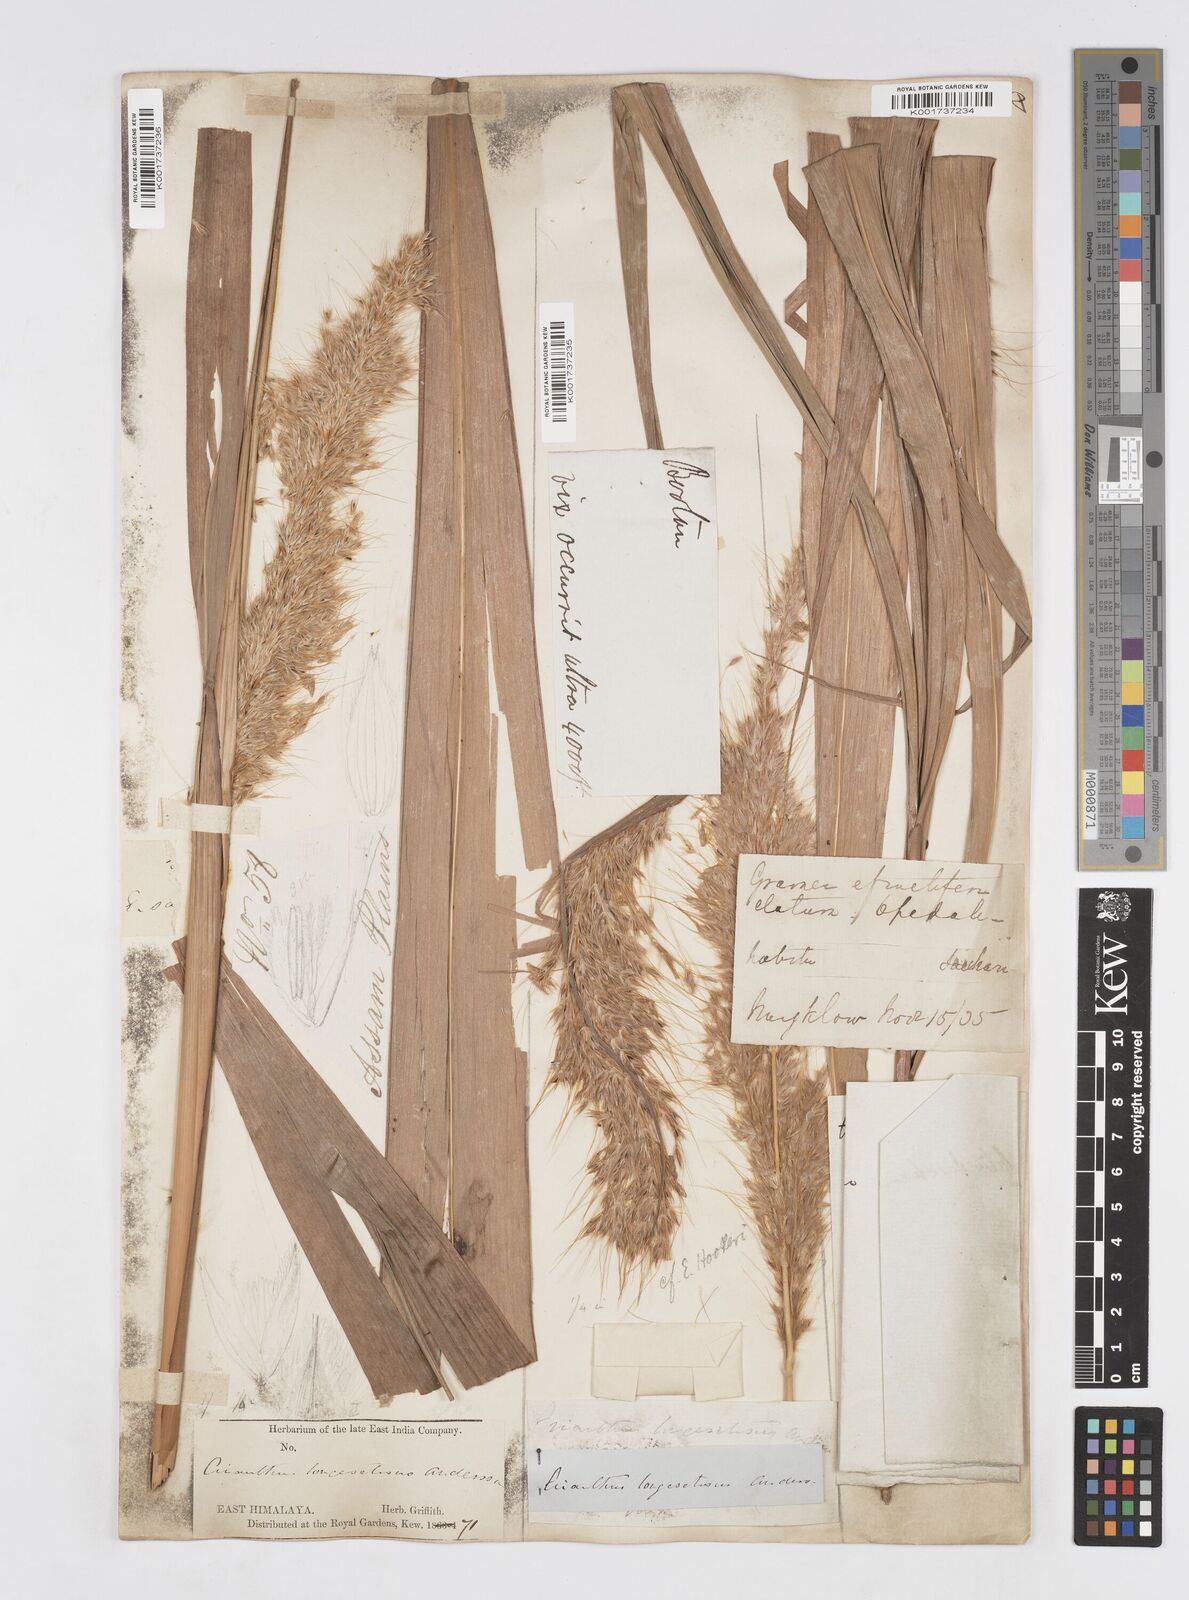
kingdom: Plantae
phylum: Tracheophyta
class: Liliopsida
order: Poales
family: Poaceae
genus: Melinis
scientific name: Melinis longiseta
